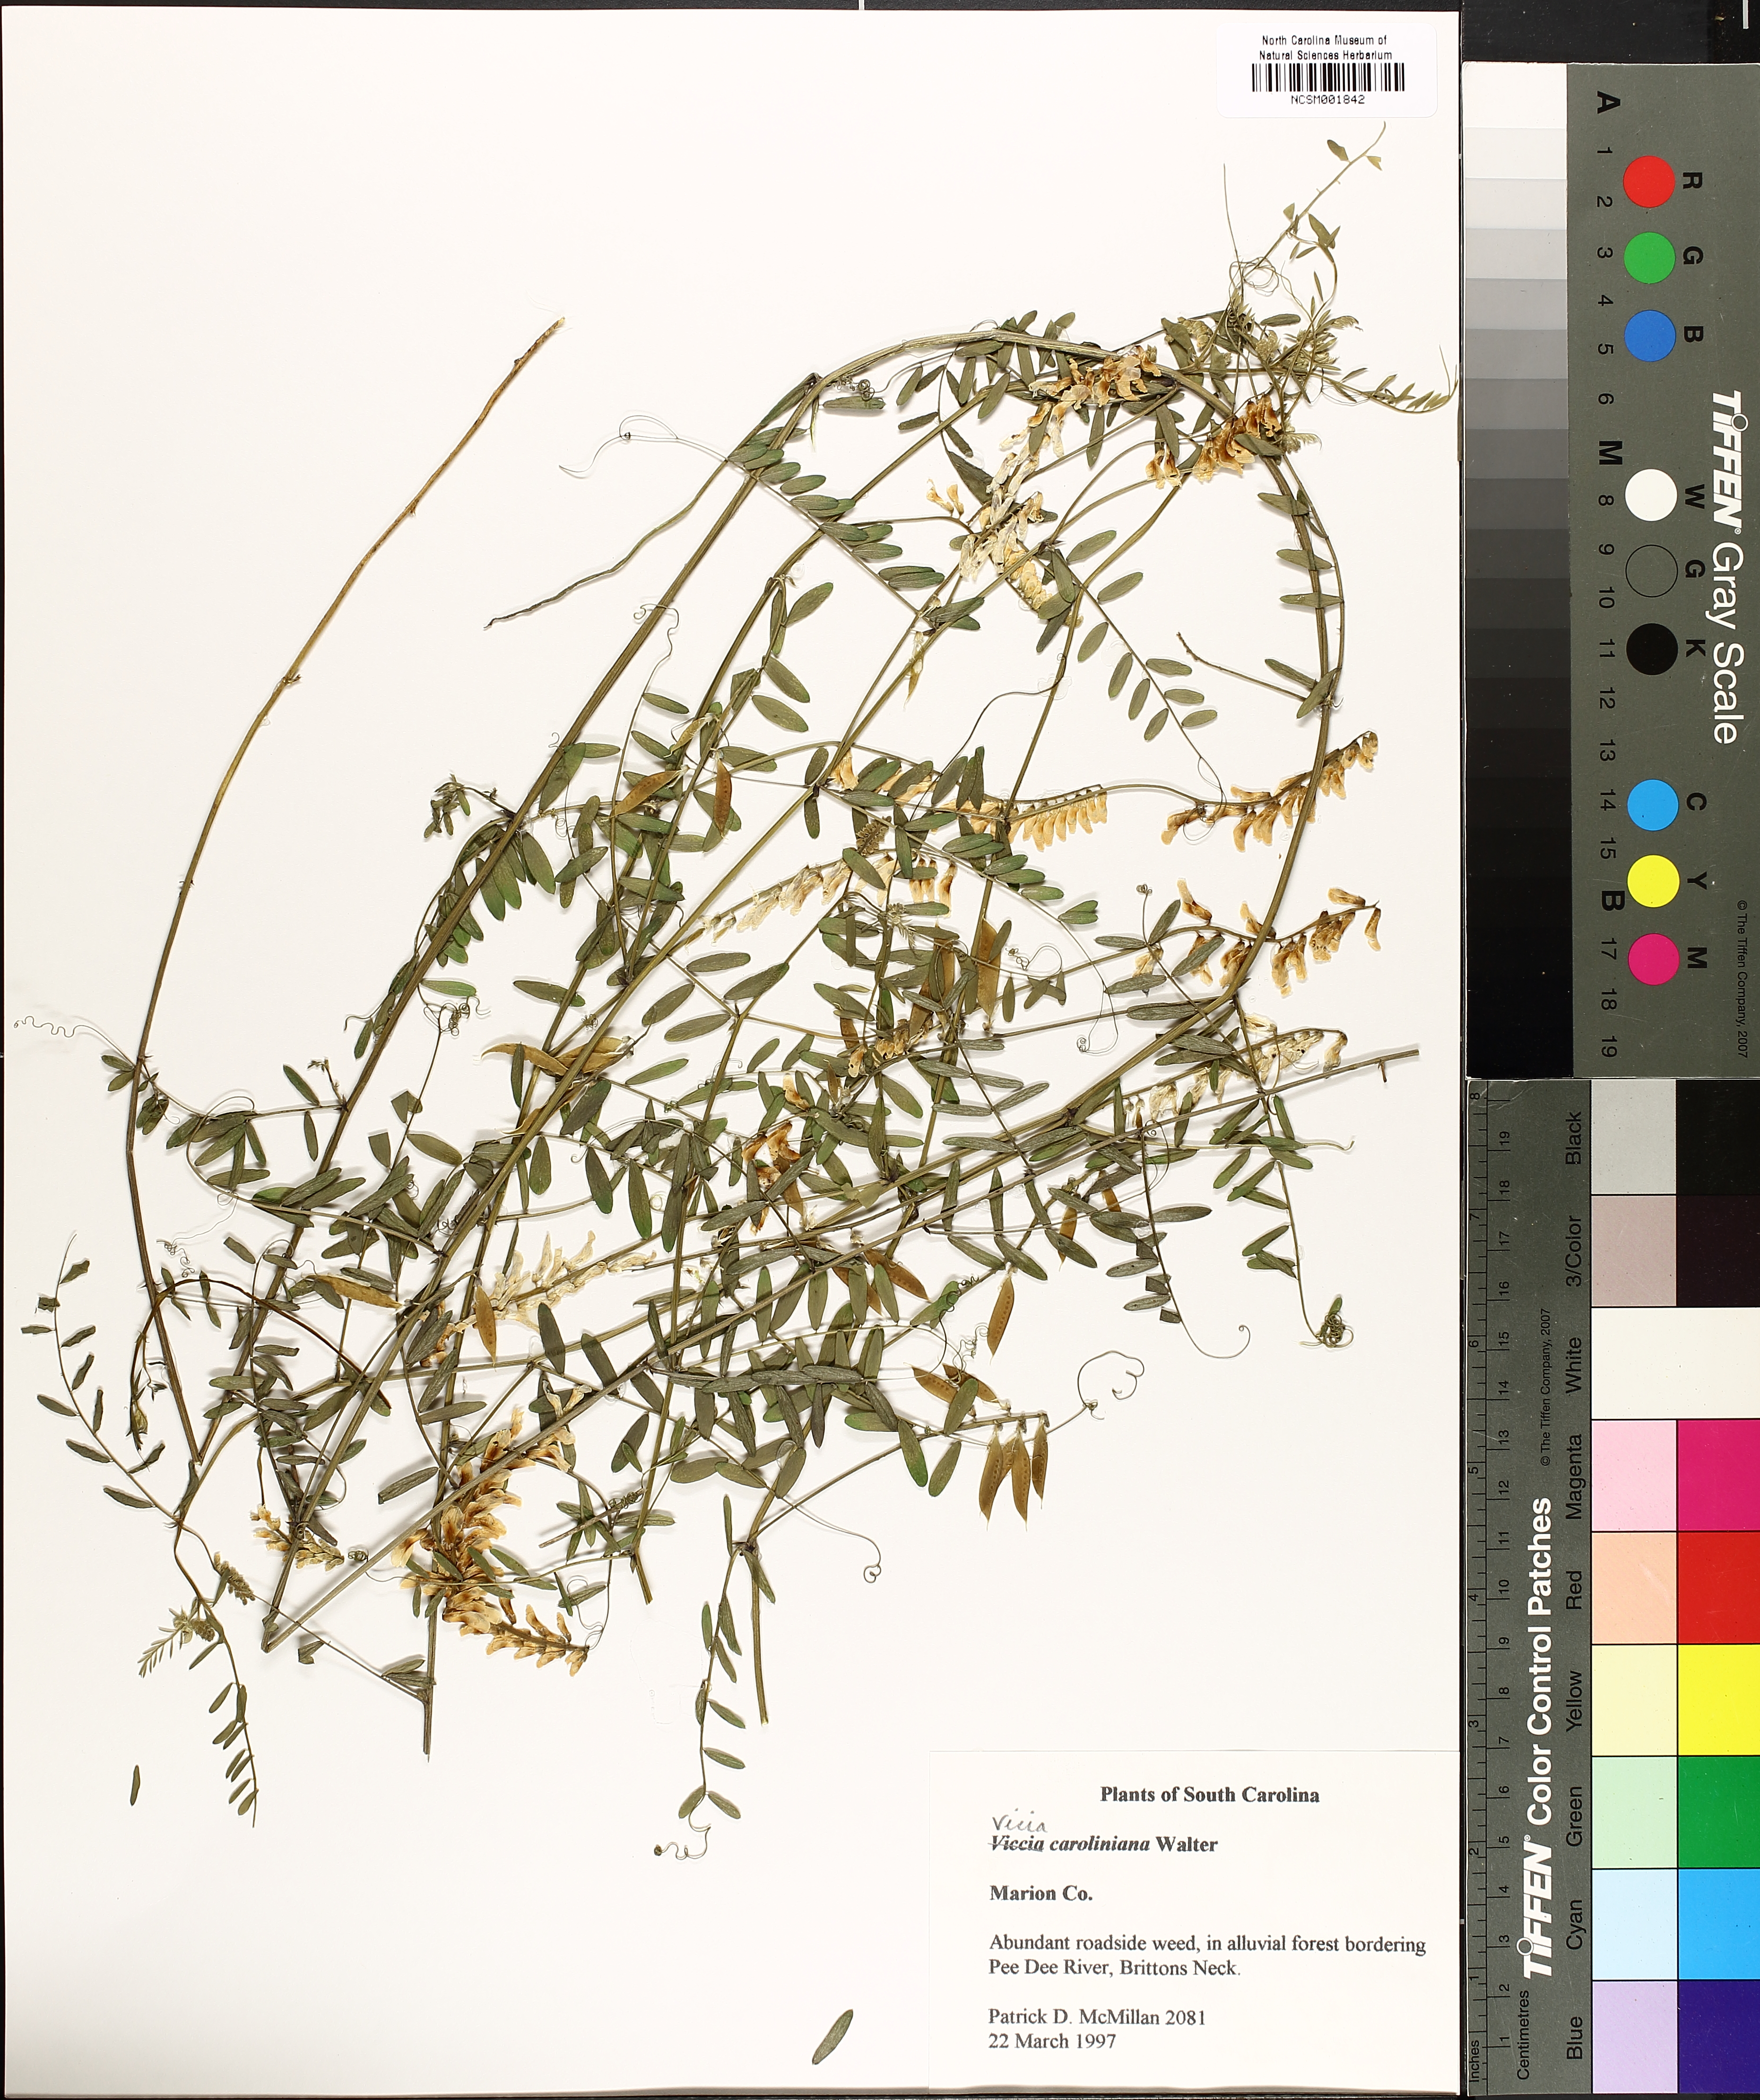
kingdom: Plantae
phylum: Tracheophyta
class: Magnoliopsida
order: Fabales
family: Fabaceae
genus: Vicia
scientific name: Vicia caroliniana
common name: Carolina vetch
